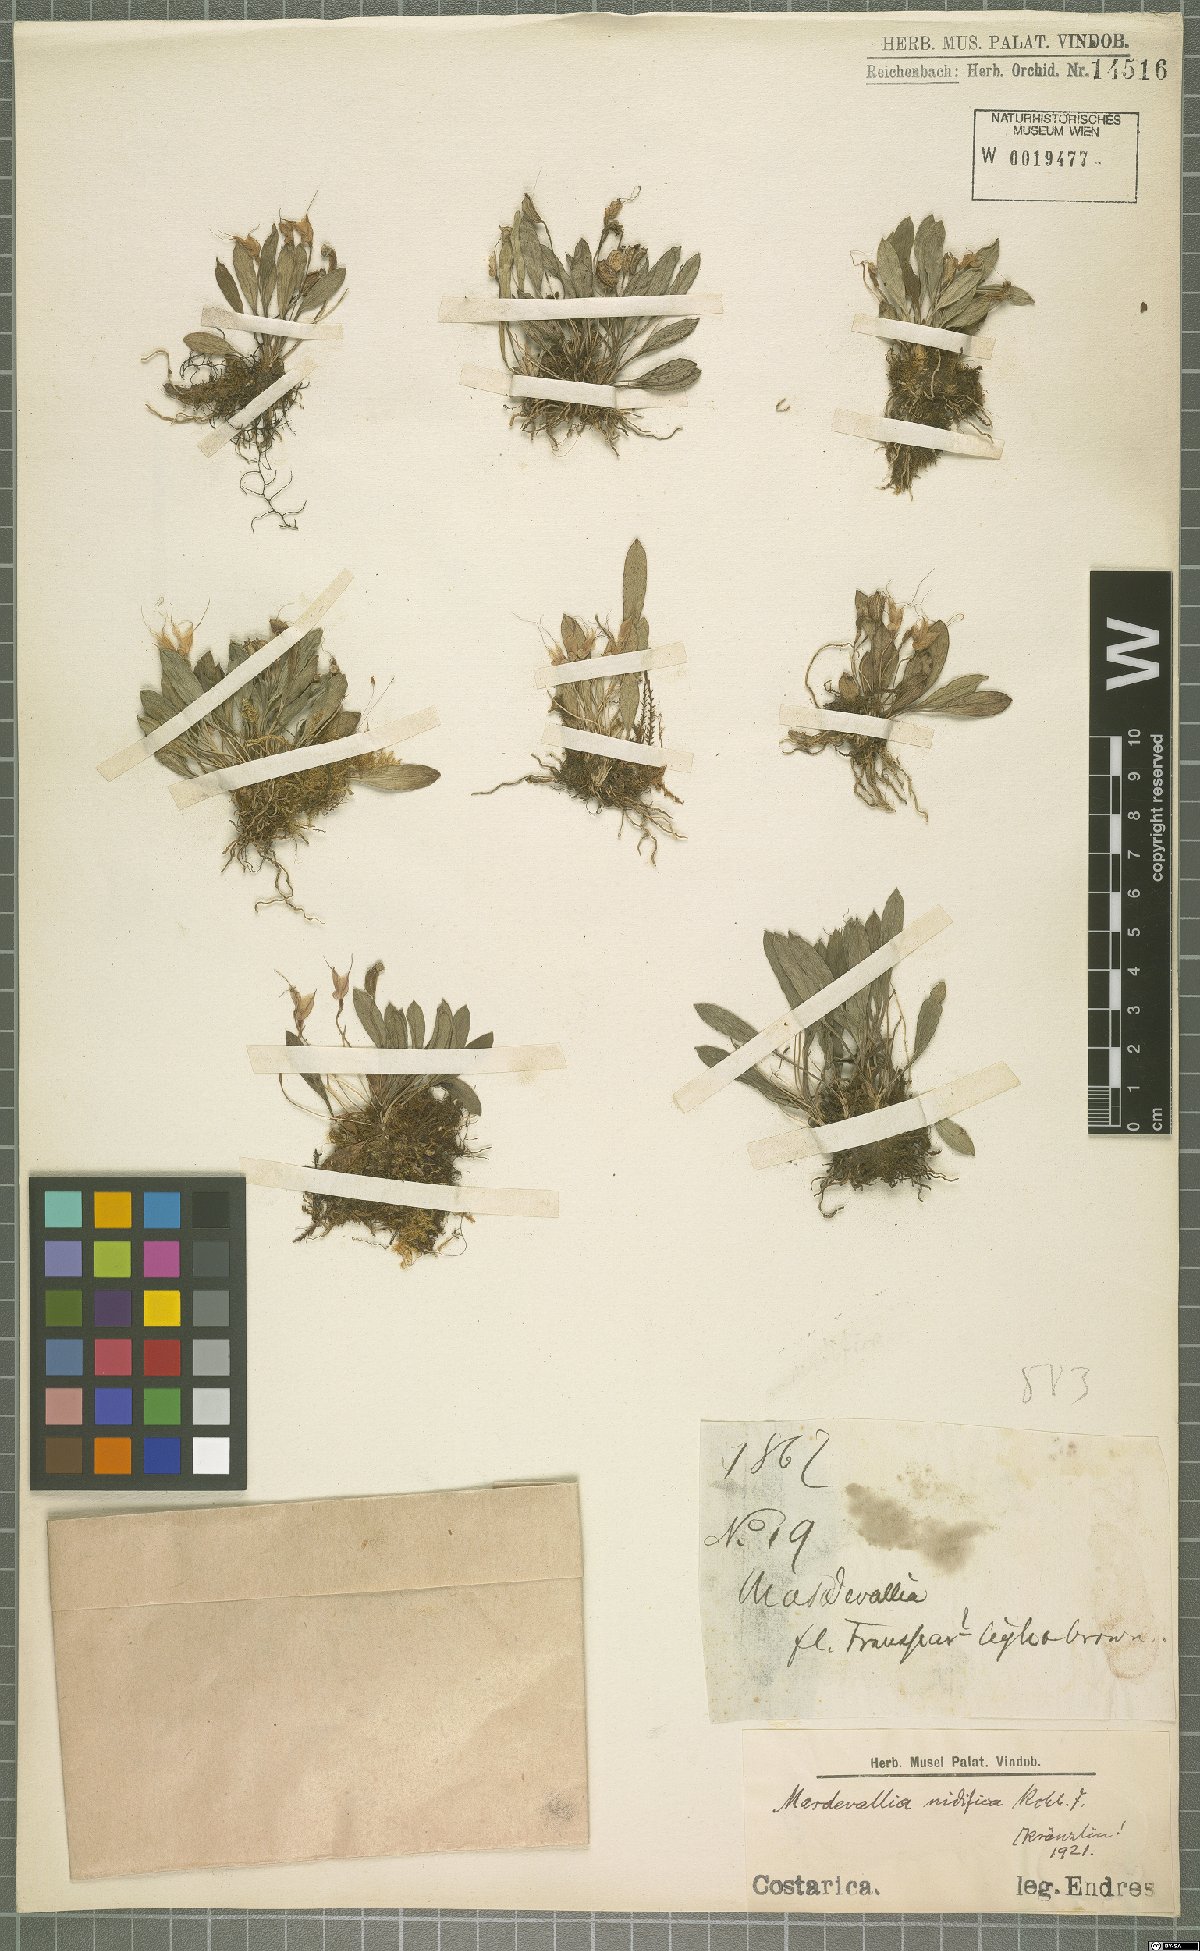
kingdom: Plantae
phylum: Tracheophyta
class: Liliopsida
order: Asparagales
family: Orchidaceae
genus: Masdevallia
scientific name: Masdevallia nidifica
